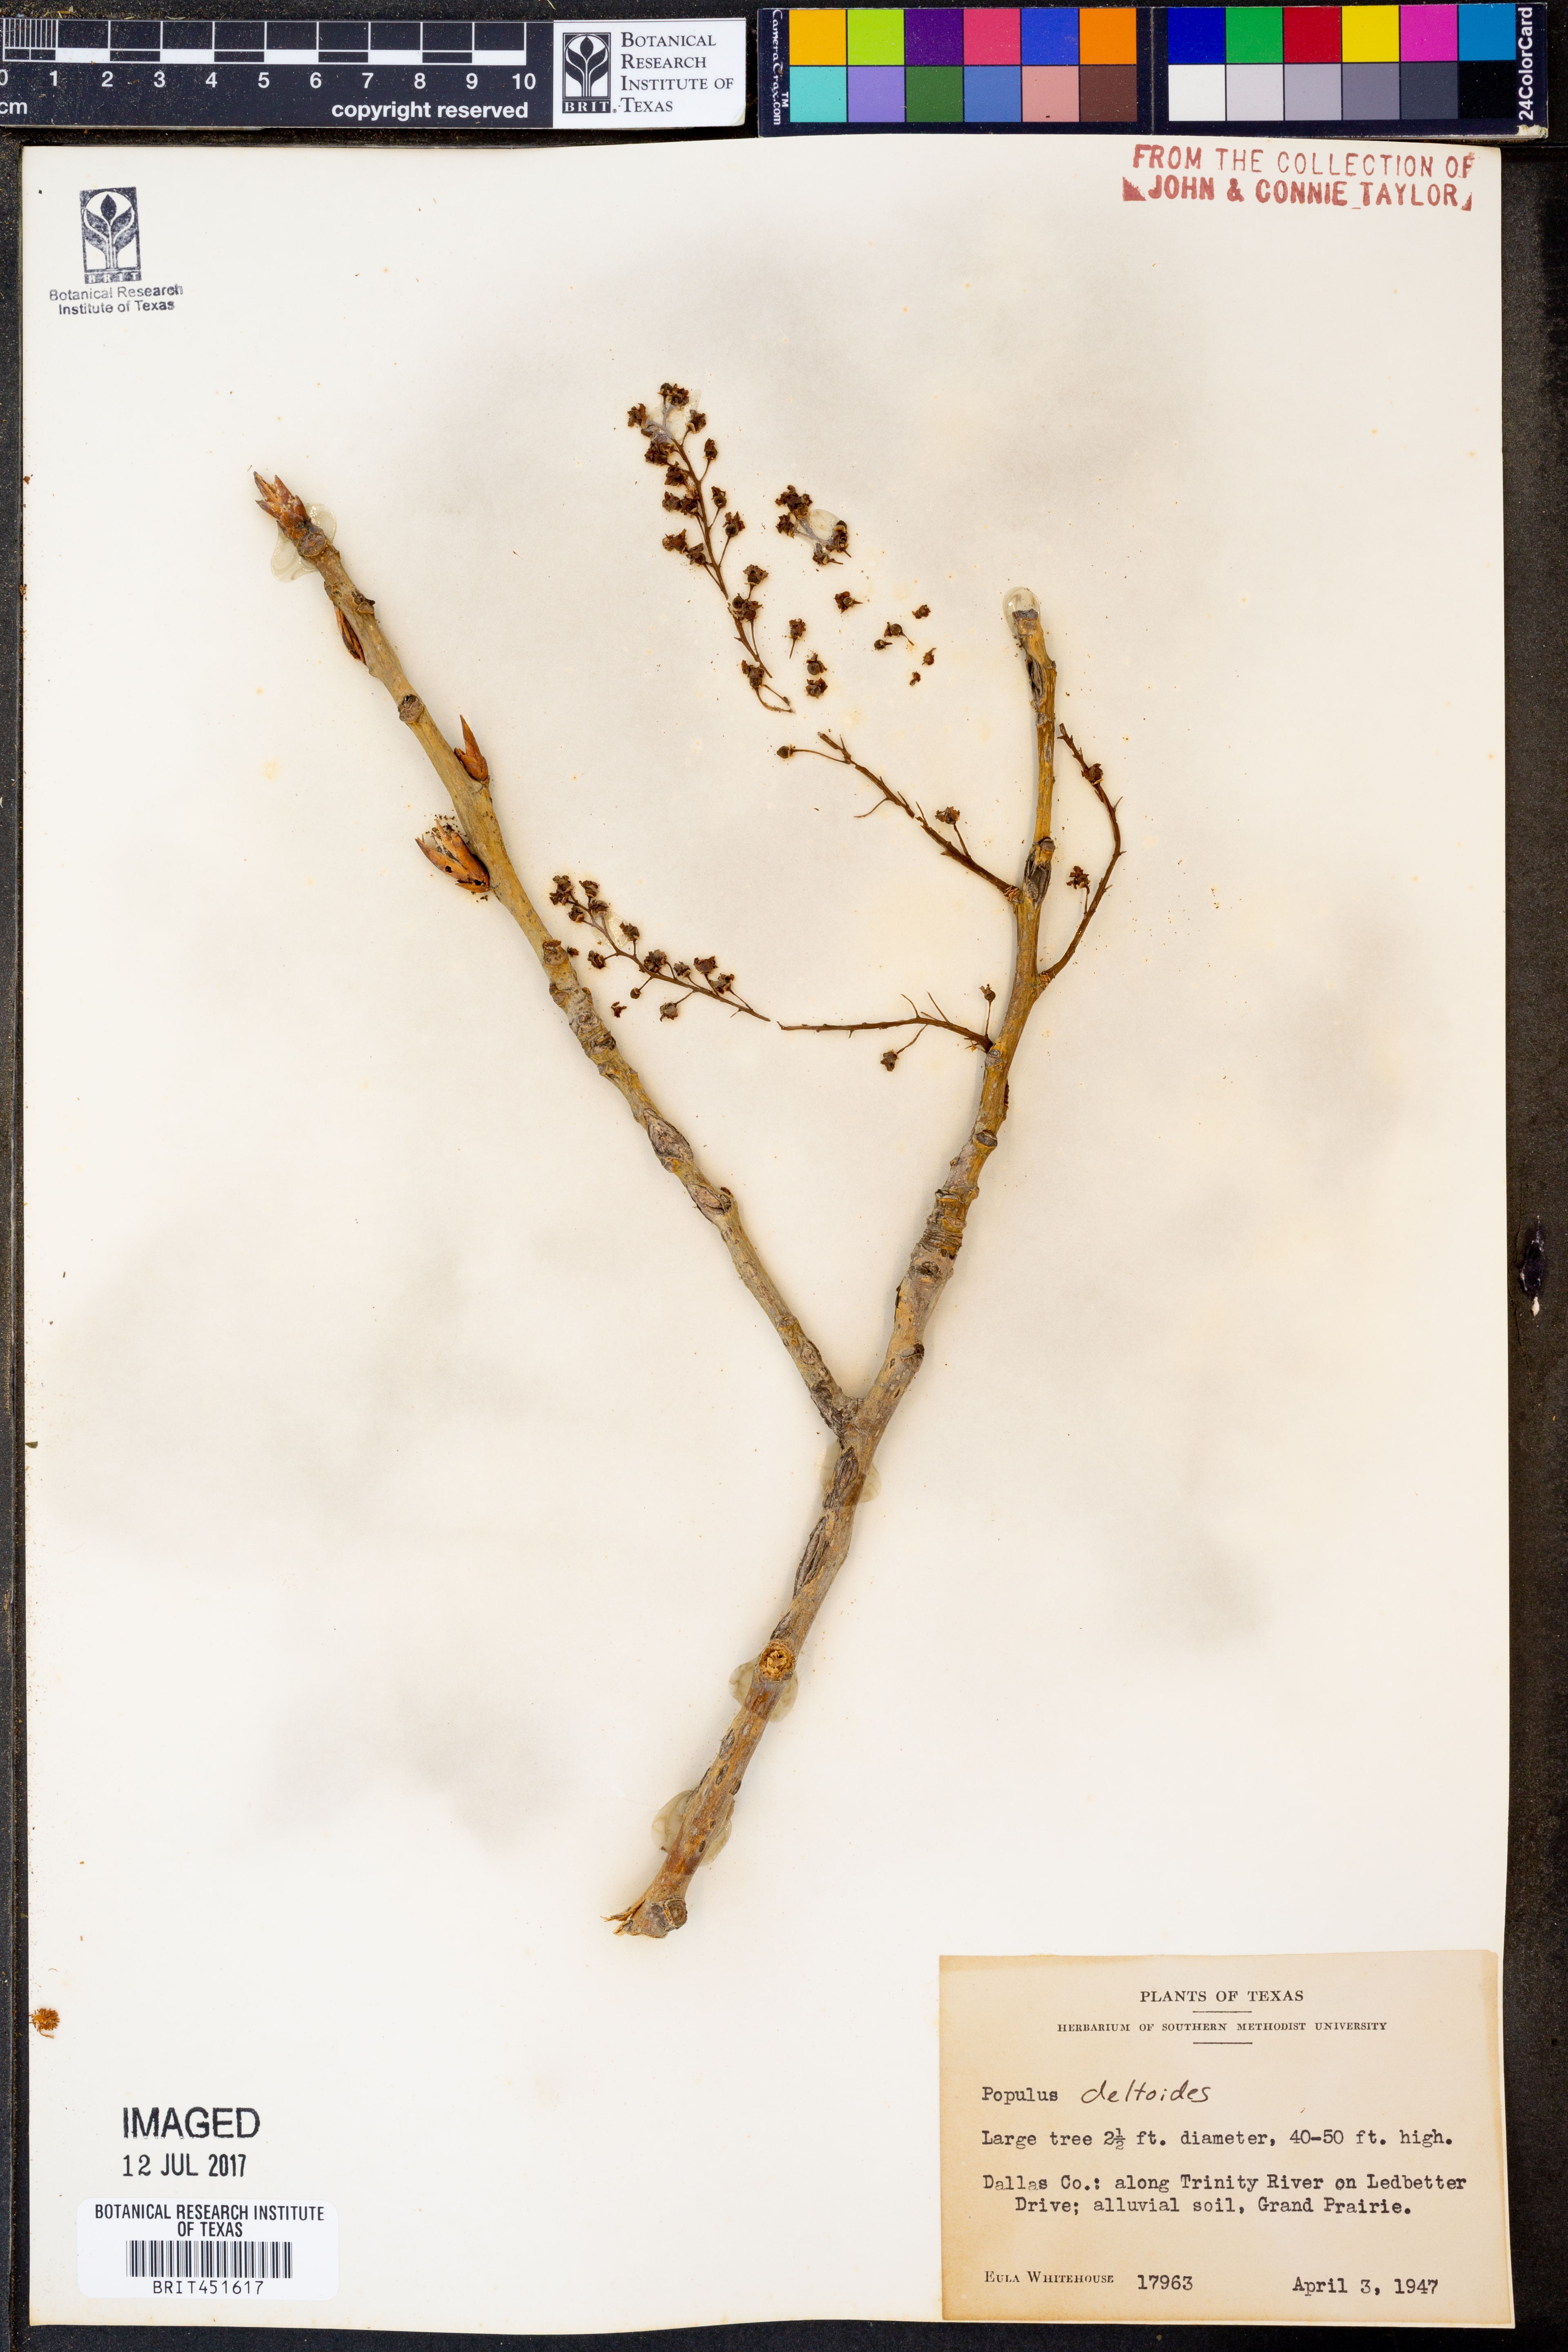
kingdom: Plantae
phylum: Tracheophyta
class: Magnoliopsida
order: Malpighiales
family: Salicaceae
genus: Populus
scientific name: Populus deltoides
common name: Eastern cottonwood
